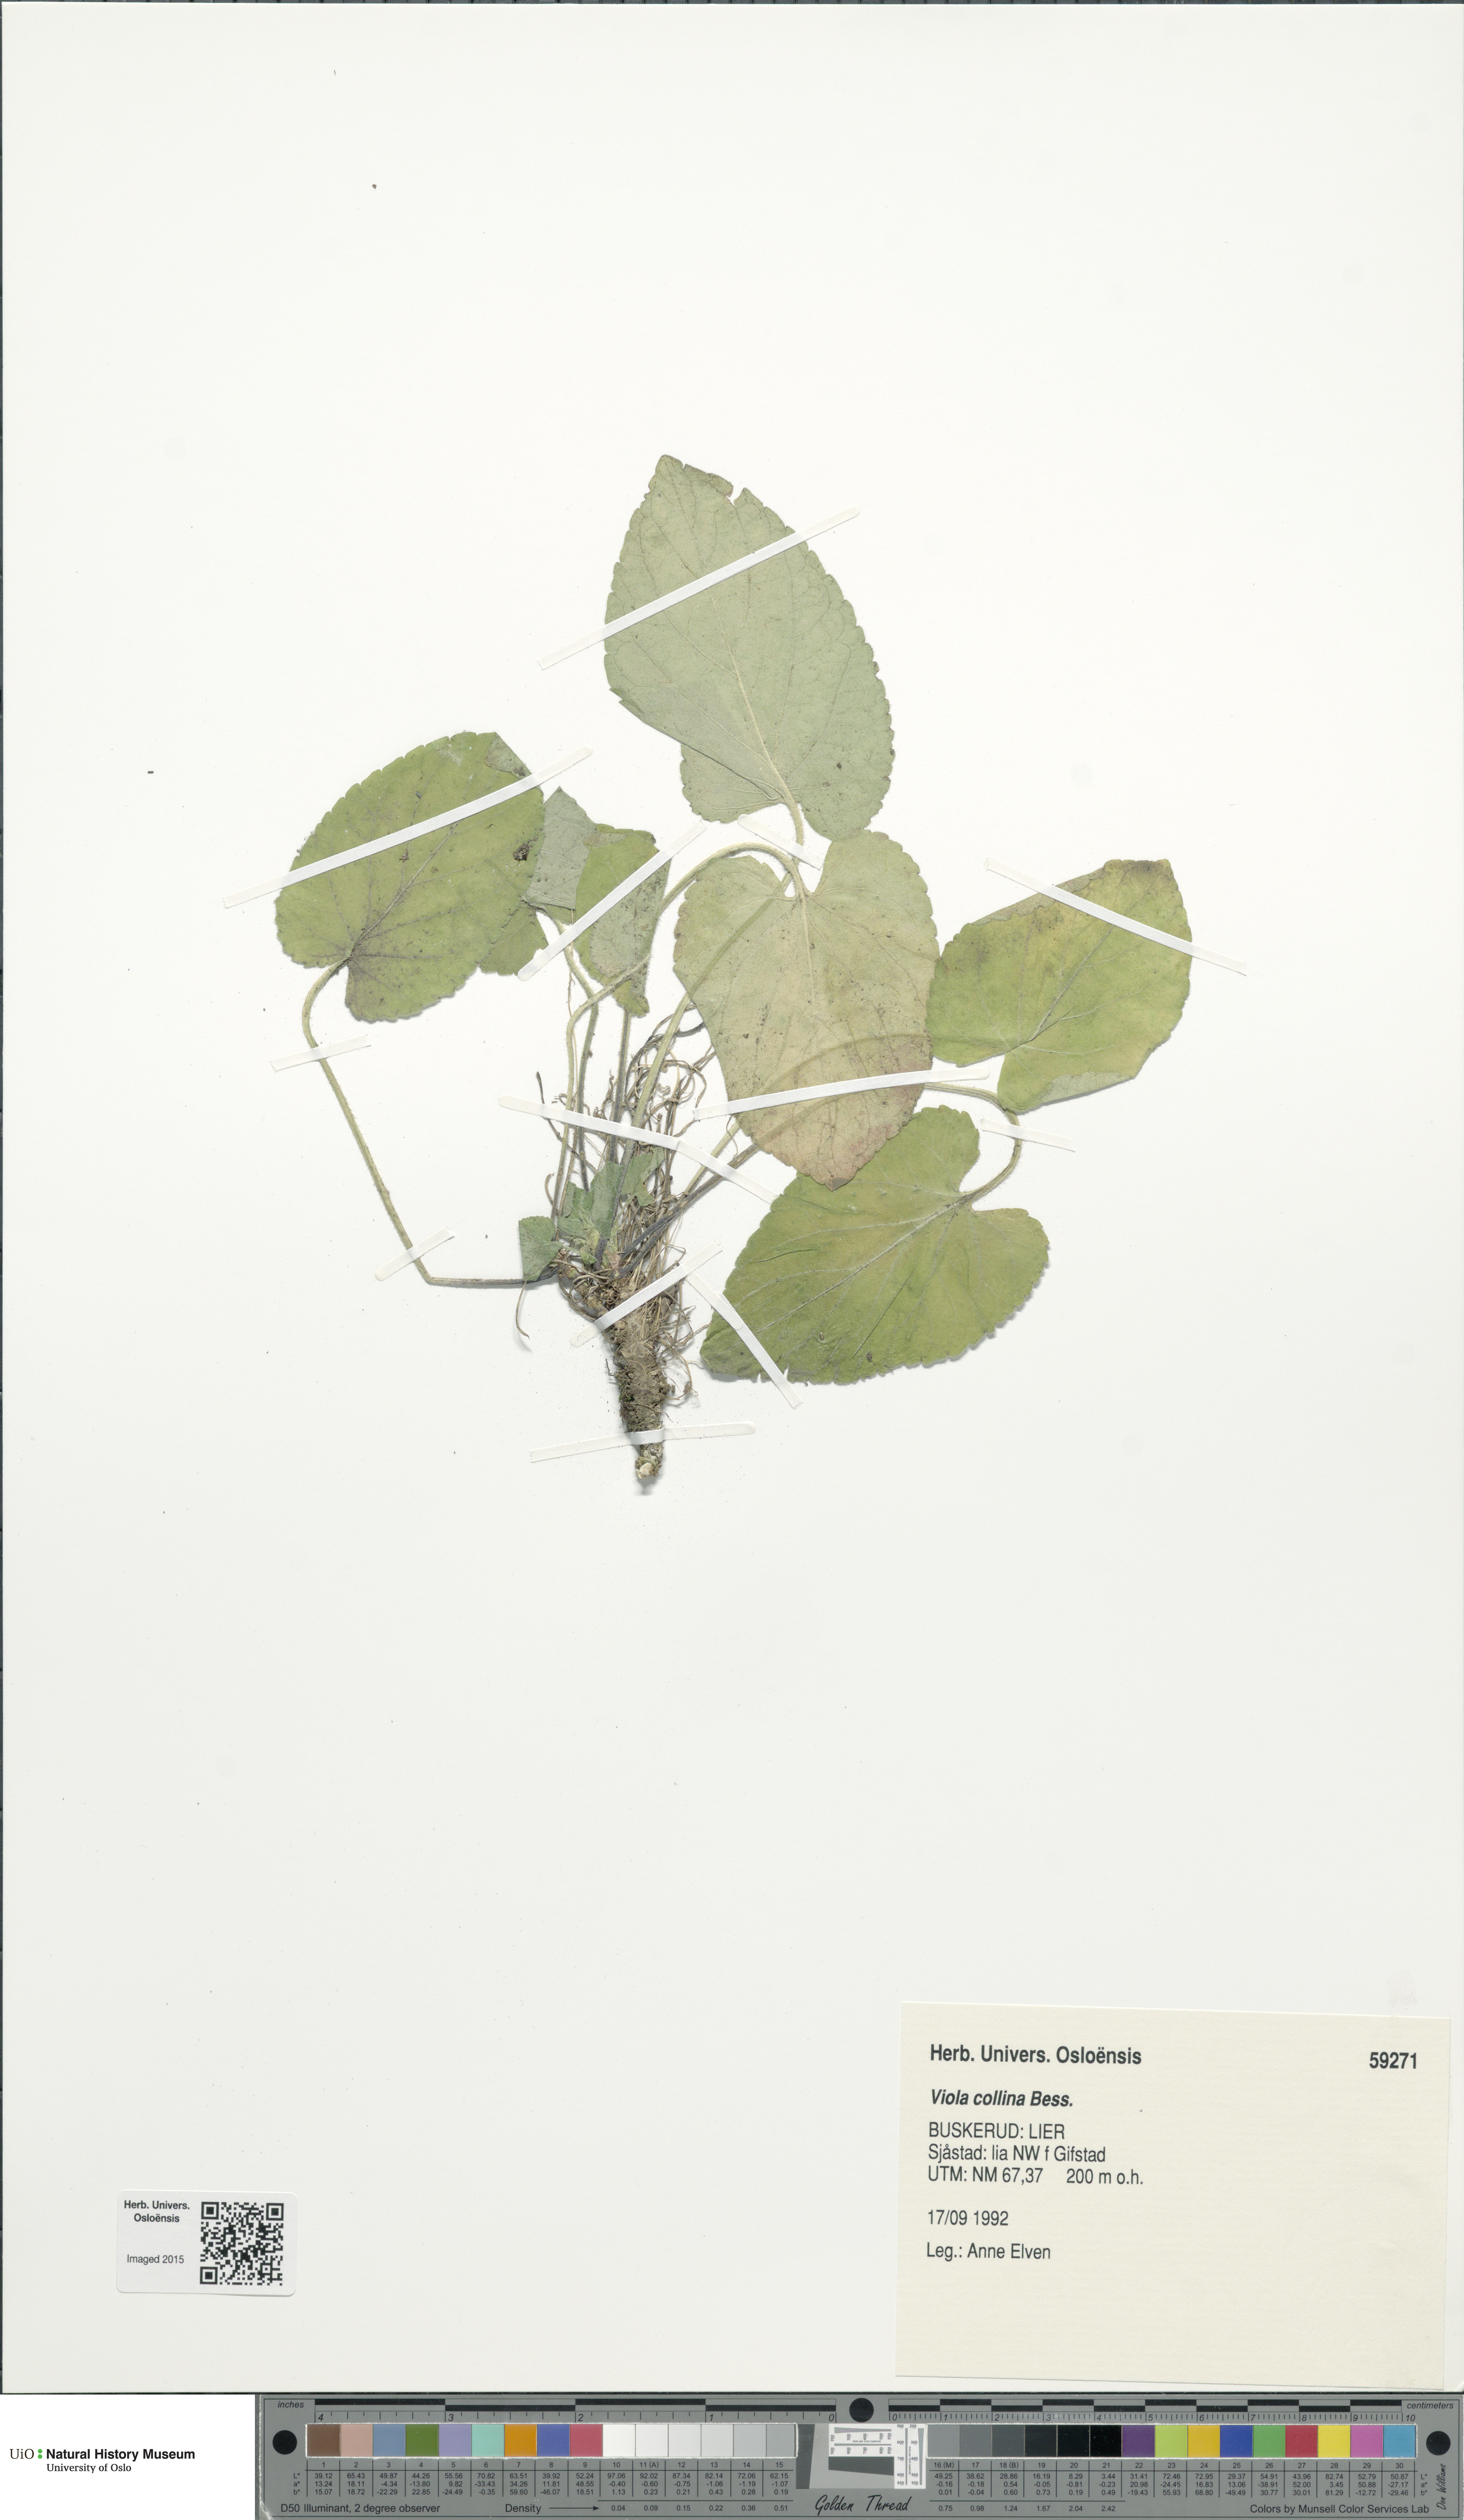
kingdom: Plantae
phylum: Tracheophyta
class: Magnoliopsida
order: Malpighiales
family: Violaceae
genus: Viola
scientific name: Viola collina
